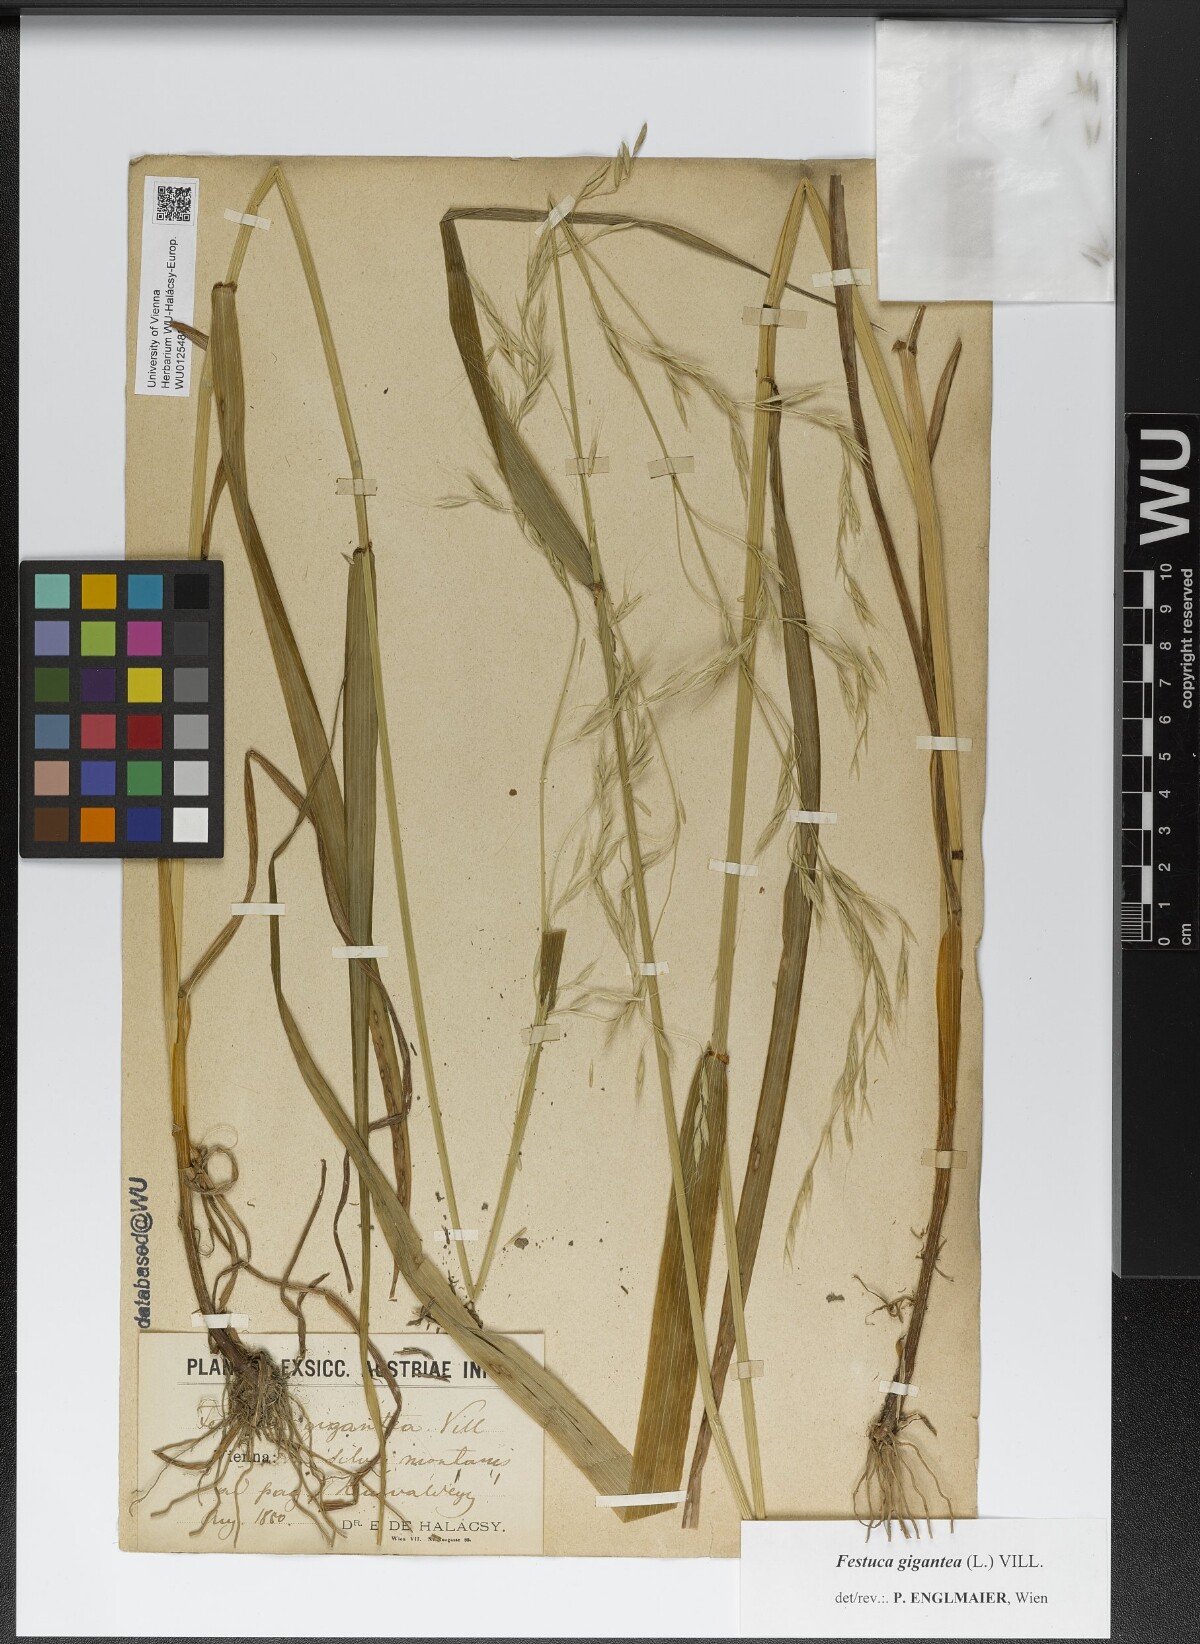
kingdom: Plantae
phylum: Tracheophyta
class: Liliopsida
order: Poales
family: Poaceae
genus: Lolium
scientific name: Lolium giganteum
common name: Giant fescue
